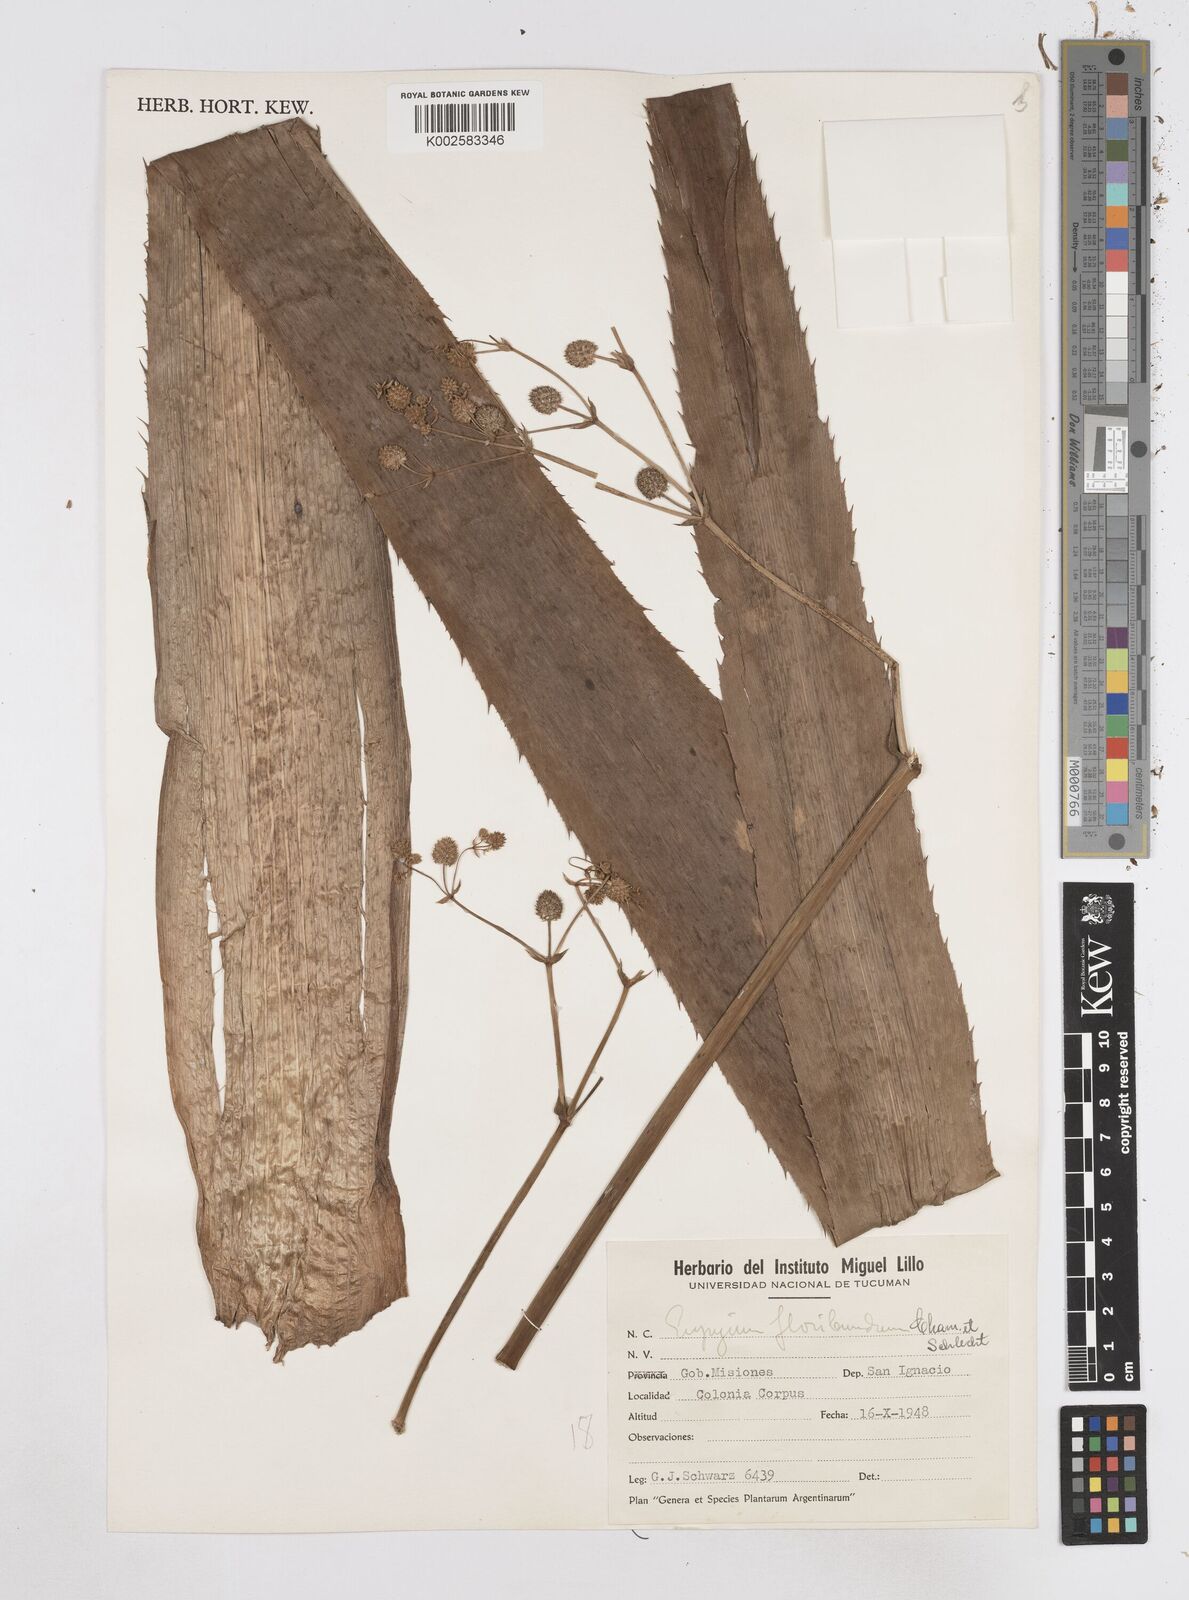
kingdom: Plantae
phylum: Tracheophyta
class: Magnoliopsida
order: Apiales
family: Apiaceae
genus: Eryngium
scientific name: Eryngium floribundum
